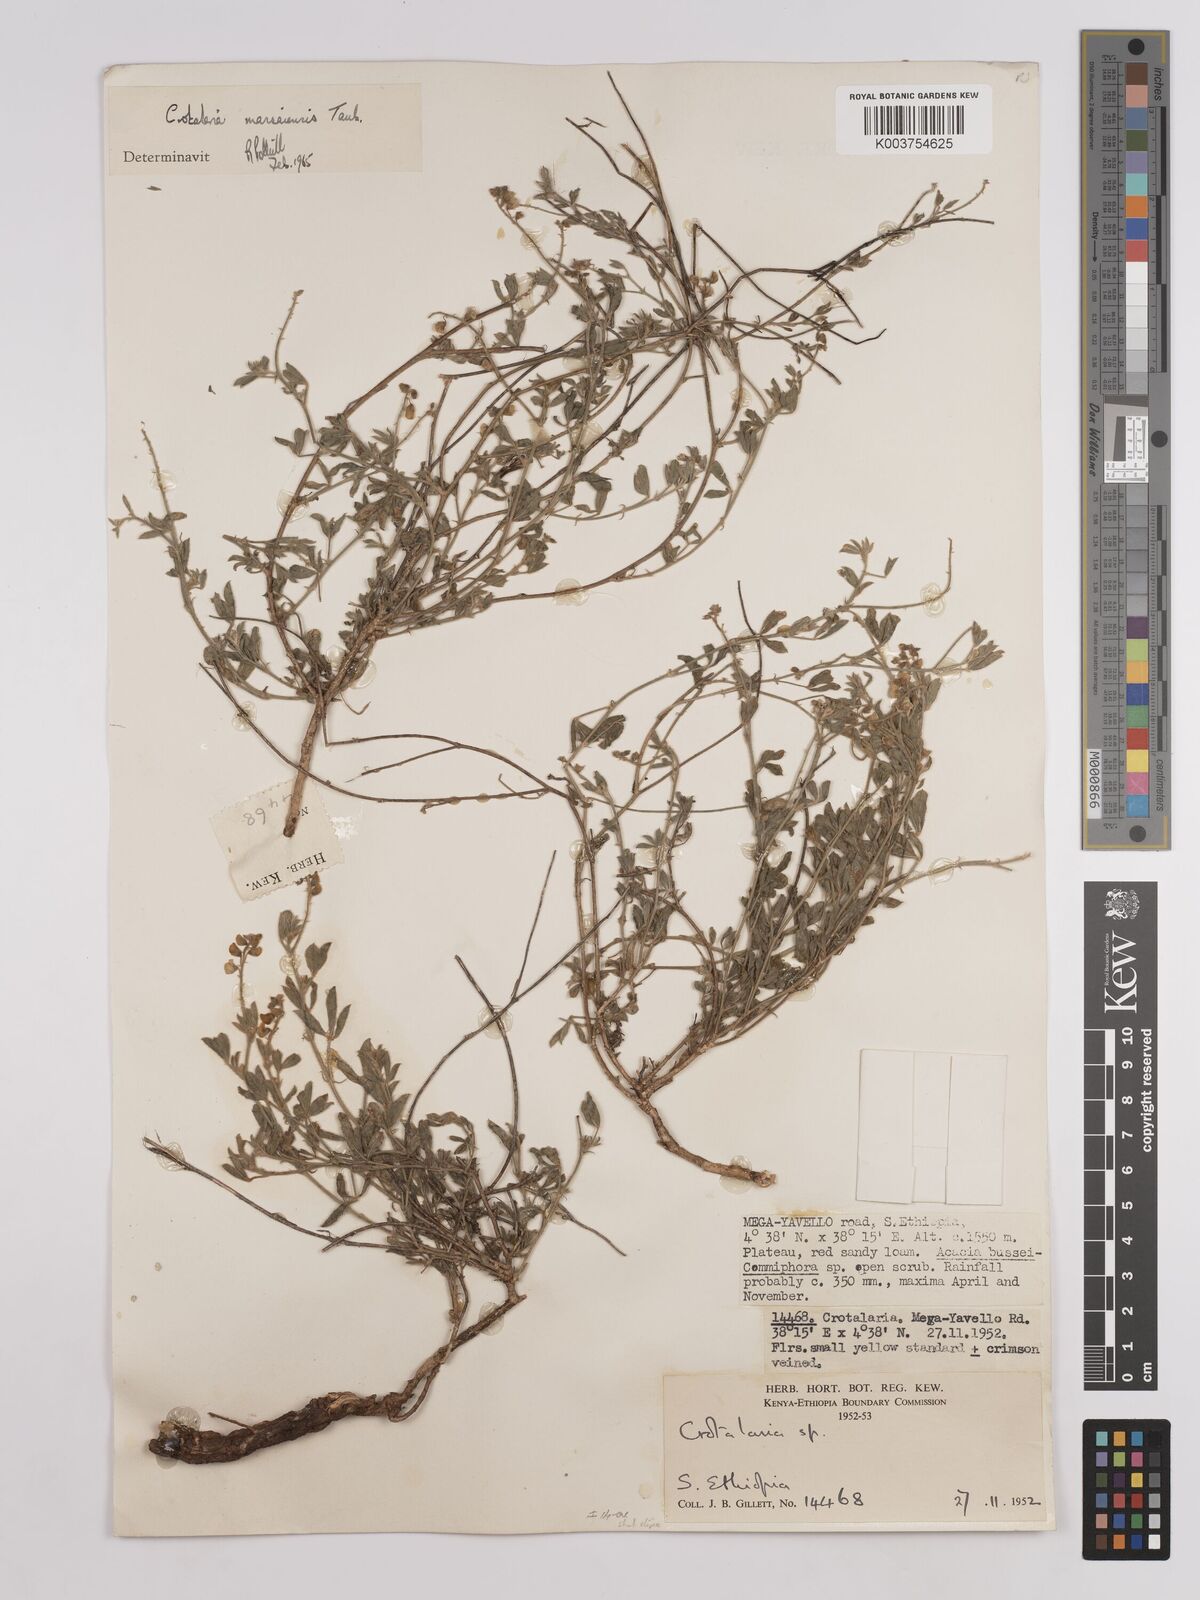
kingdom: Plantae
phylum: Tracheophyta
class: Magnoliopsida
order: Fabales
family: Fabaceae
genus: Crotalaria
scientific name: Crotalaria massaiensis
